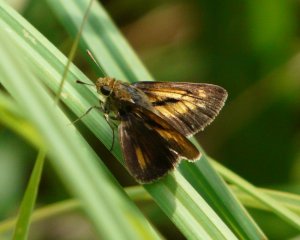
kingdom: Animalia
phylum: Arthropoda
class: Insecta
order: Lepidoptera
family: Hesperiidae
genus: Euphyes
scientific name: Euphyes dion
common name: Dion Skipper
